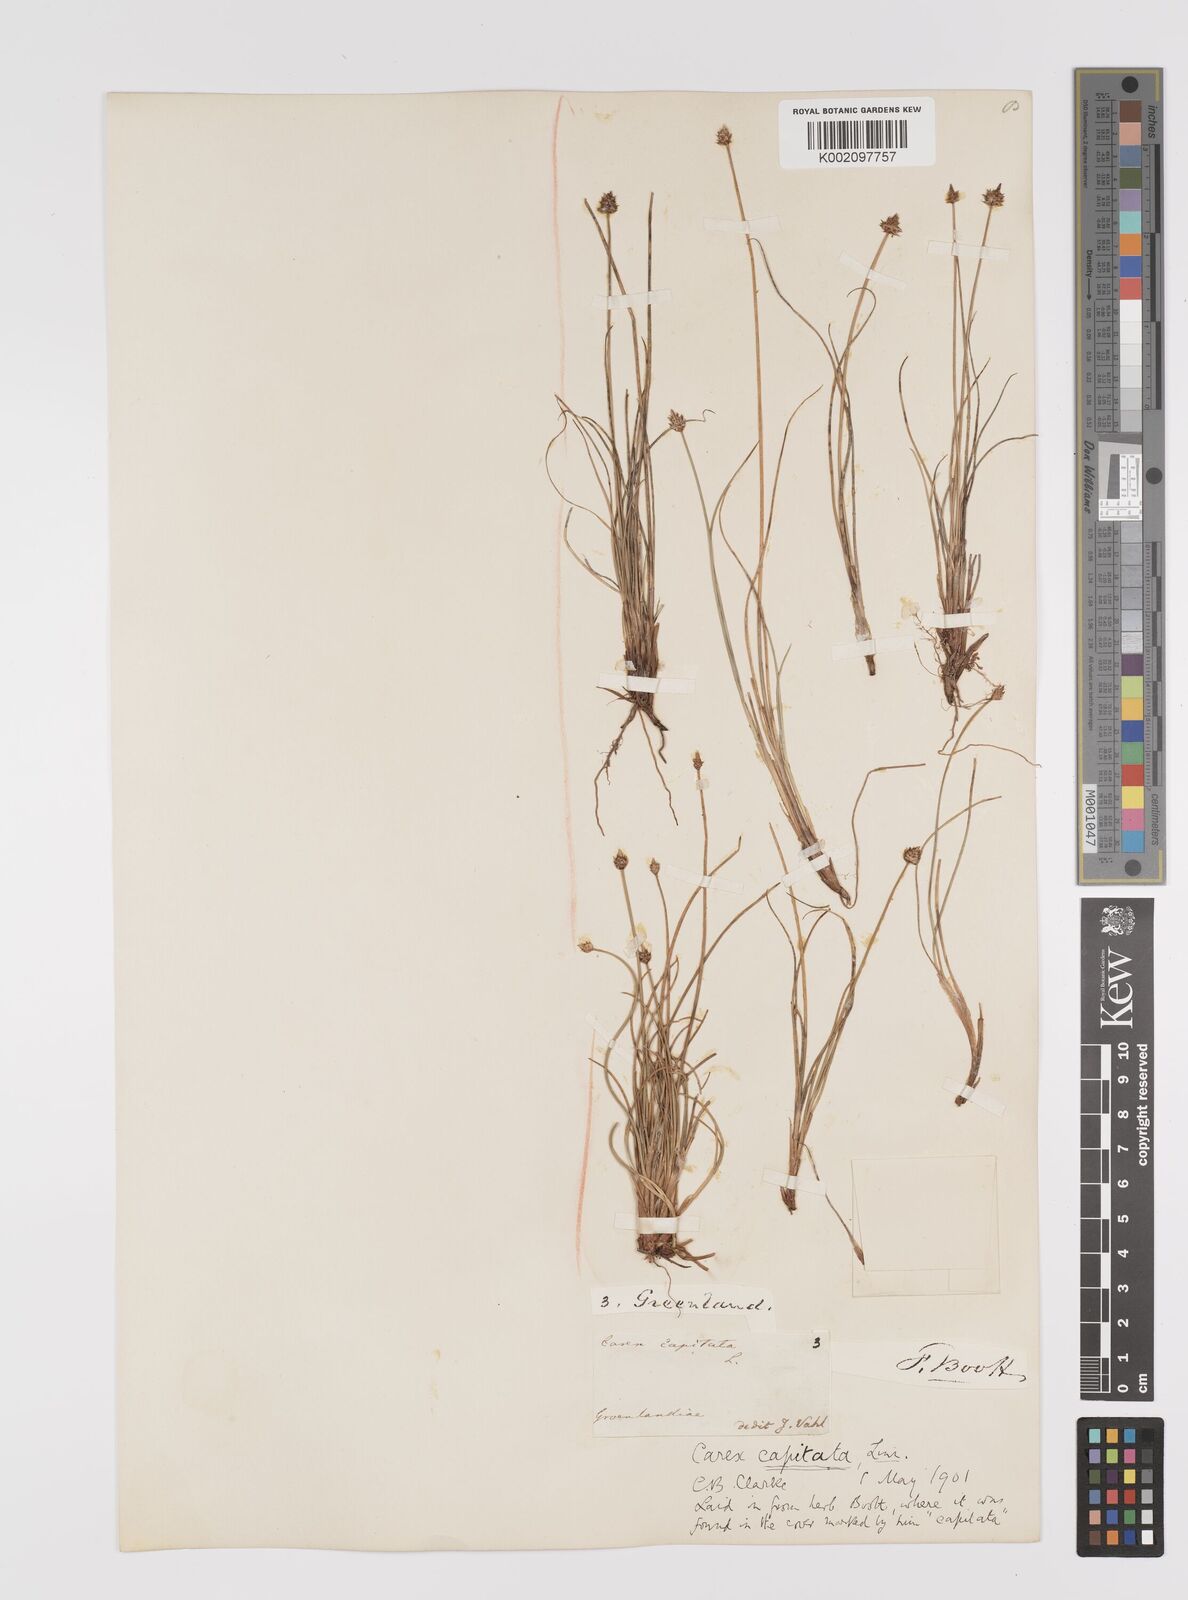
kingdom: Plantae
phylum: Tracheophyta
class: Liliopsida
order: Poales
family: Cyperaceae
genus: Carex
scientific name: Carex capitata
